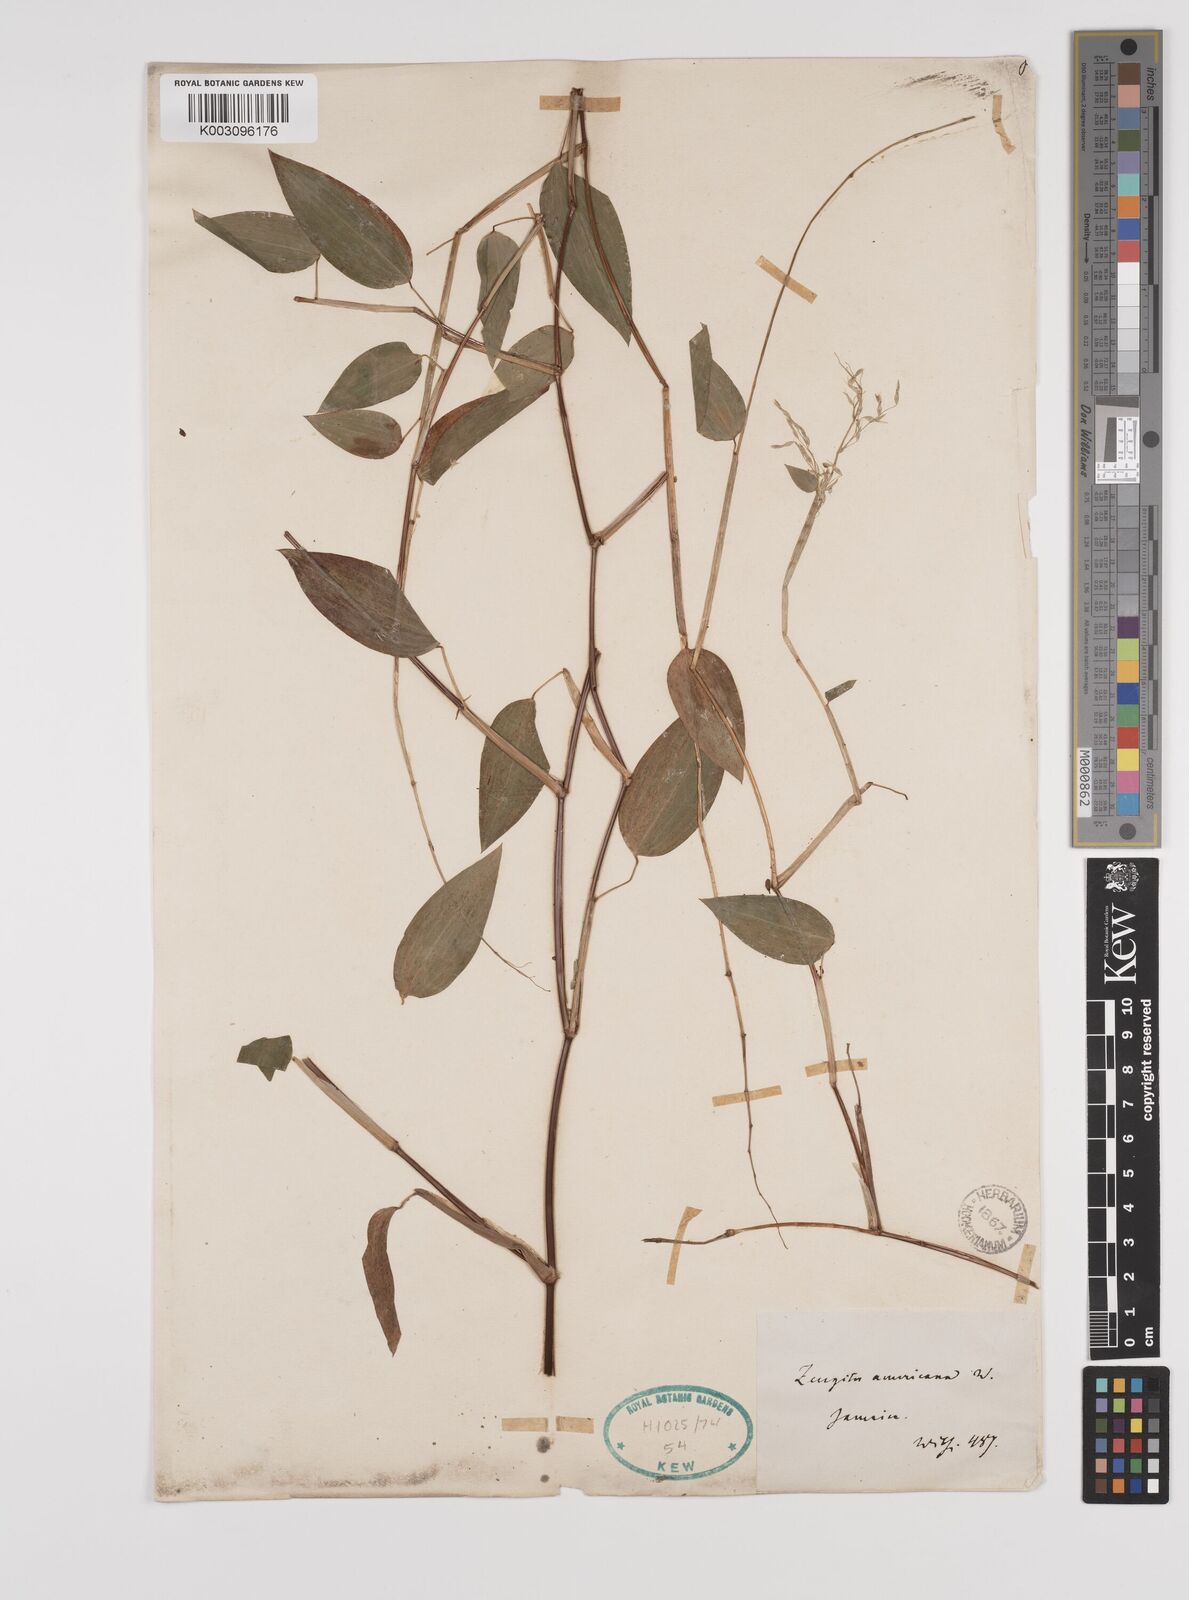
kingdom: Plantae
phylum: Tracheophyta
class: Liliopsida
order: Poales
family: Poaceae
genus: Zeugites
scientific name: Zeugites americanus
